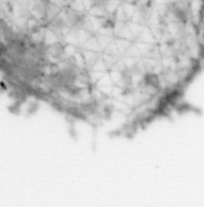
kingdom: Animalia
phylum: Chordata
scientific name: Chordata
